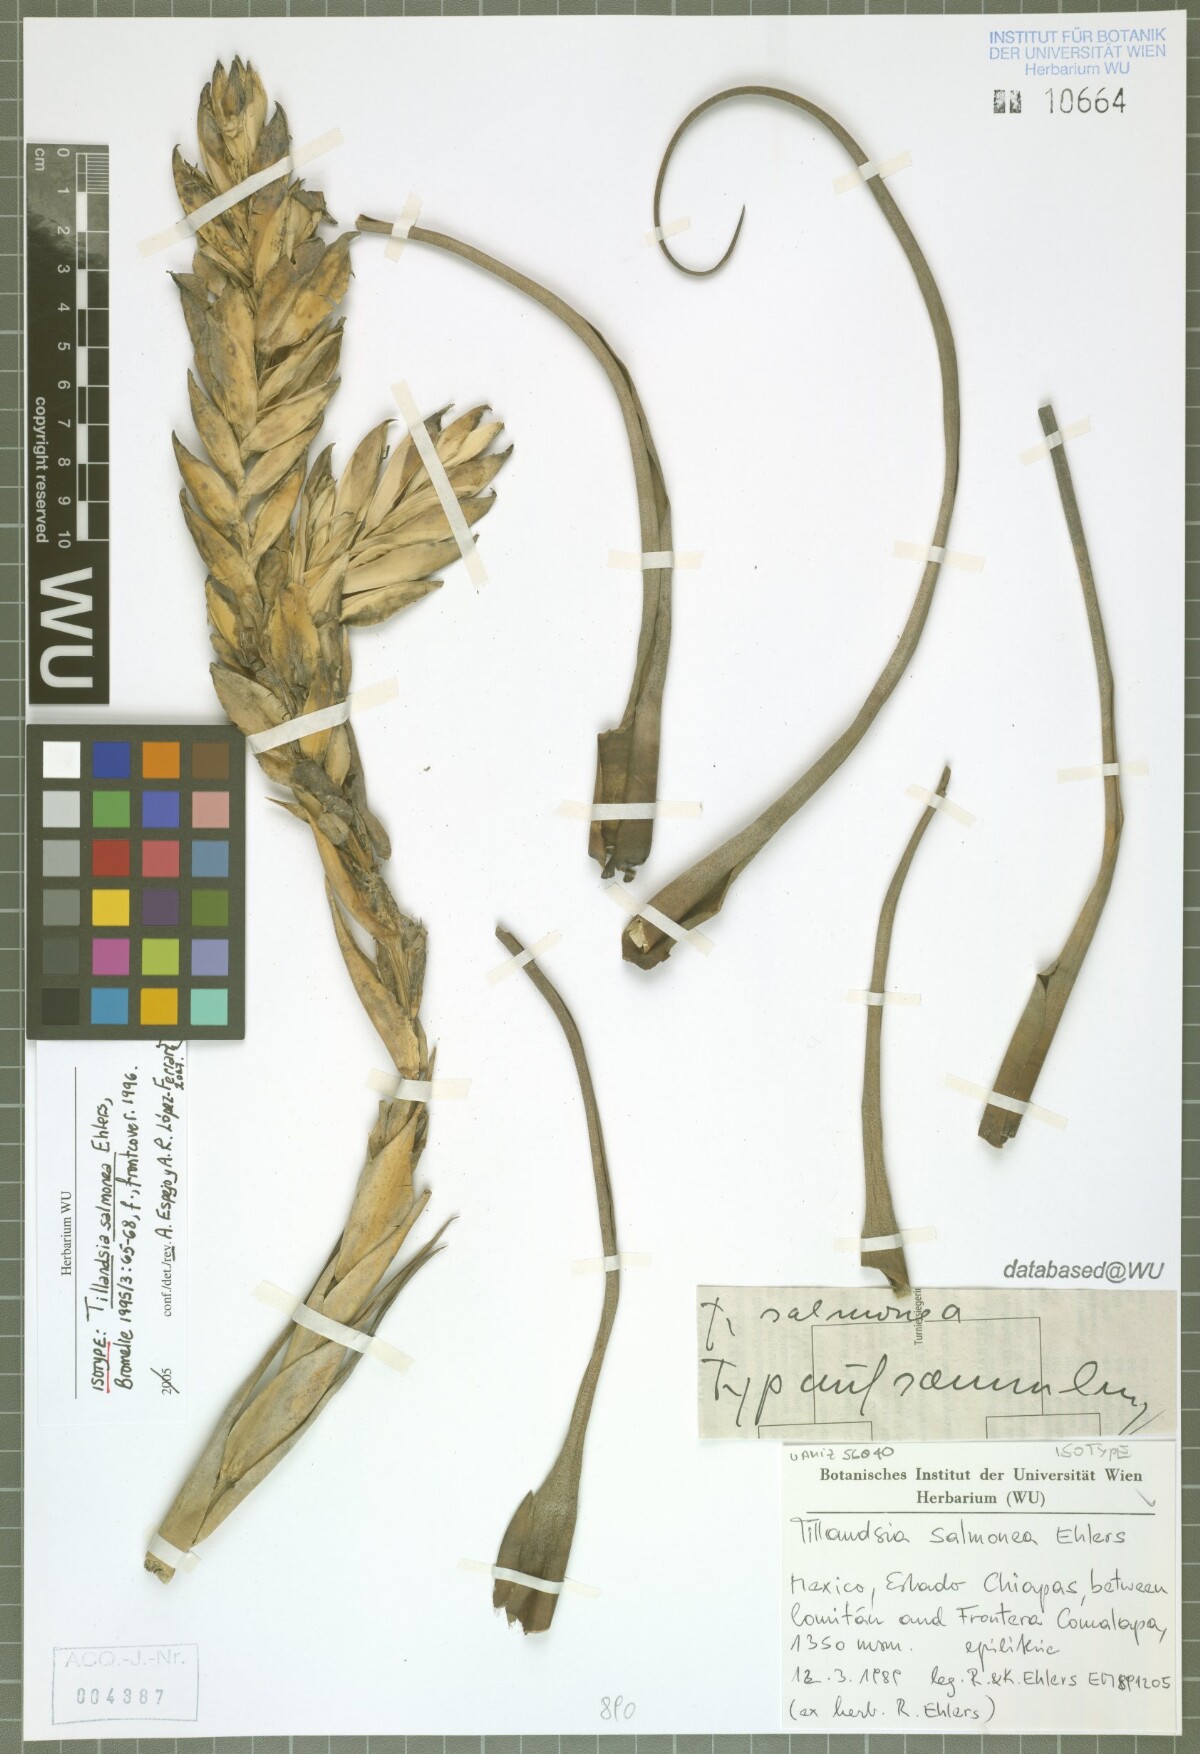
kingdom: Plantae
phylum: Tracheophyta
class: Liliopsida
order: Poales
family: Bromeliaceae
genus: Tillandsia
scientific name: Tillandsia salmonea
